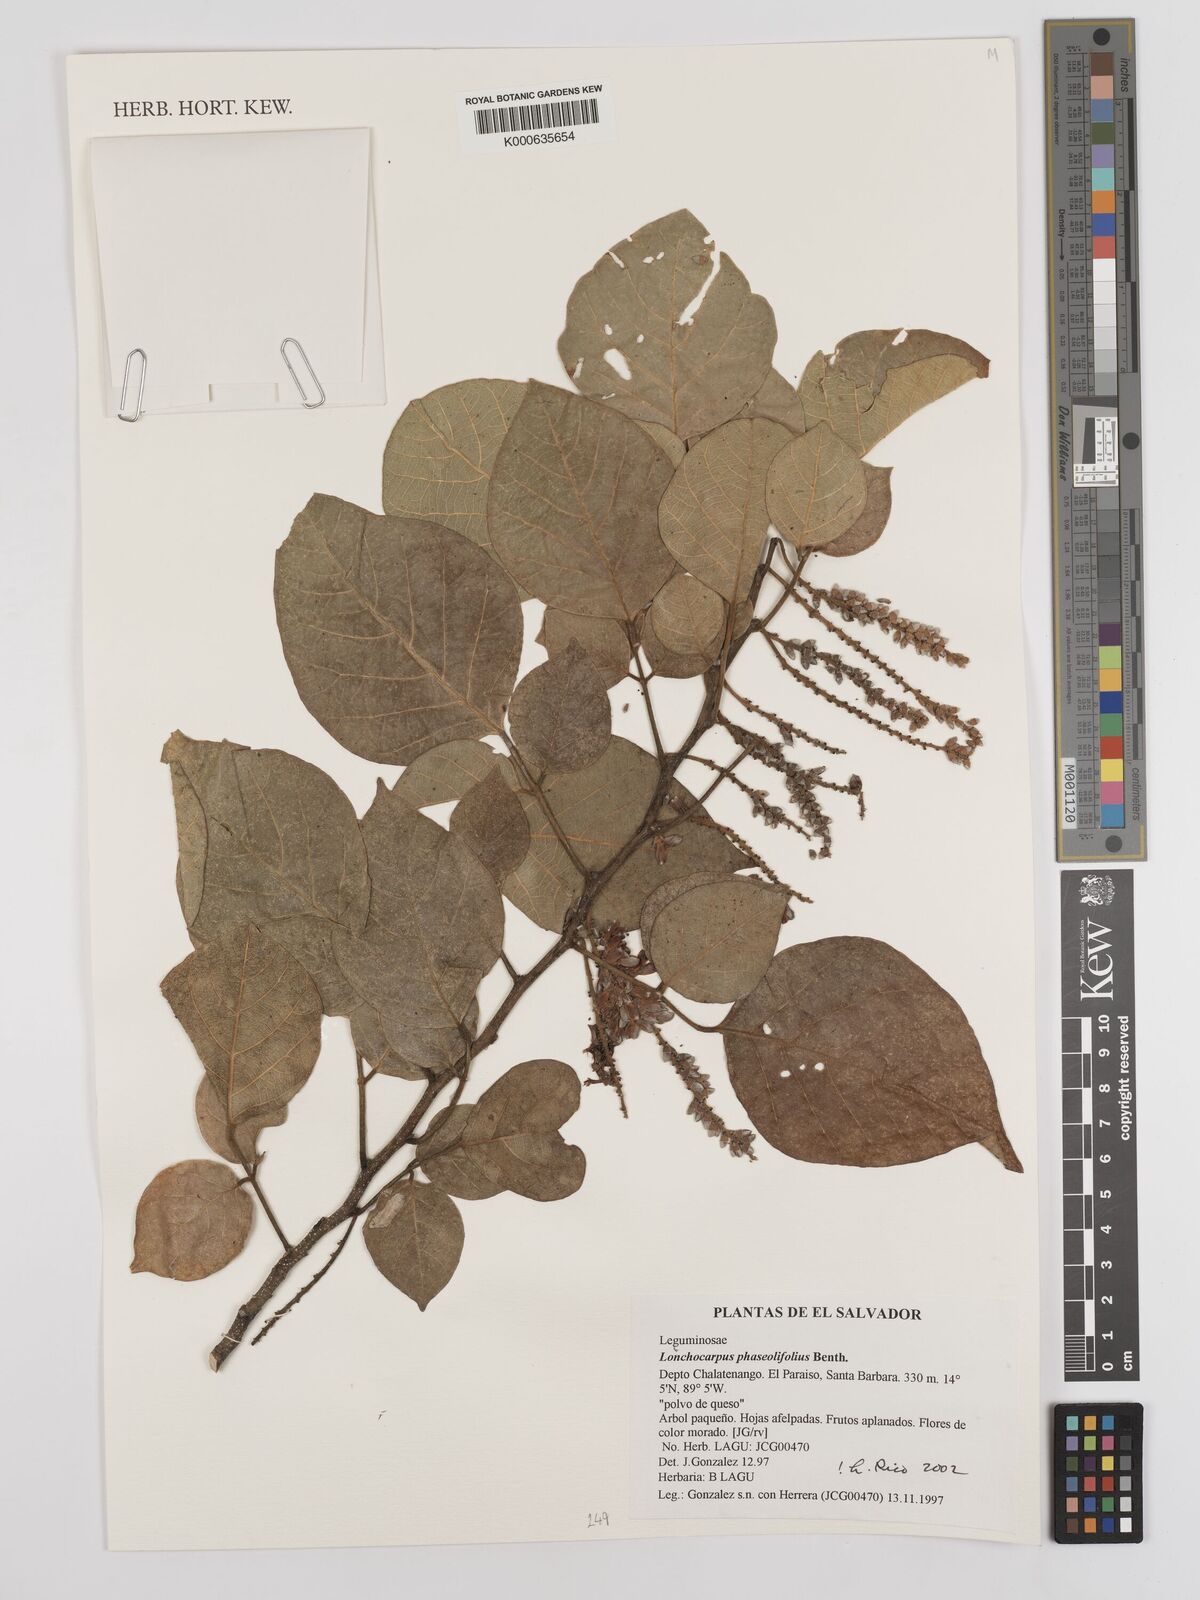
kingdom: Plantae
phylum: Tracheophyta
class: Magnoliopsida
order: Fabales
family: Fabaceae
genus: Lonchocarpus
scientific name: Lonchocarpus phaseolifolius
